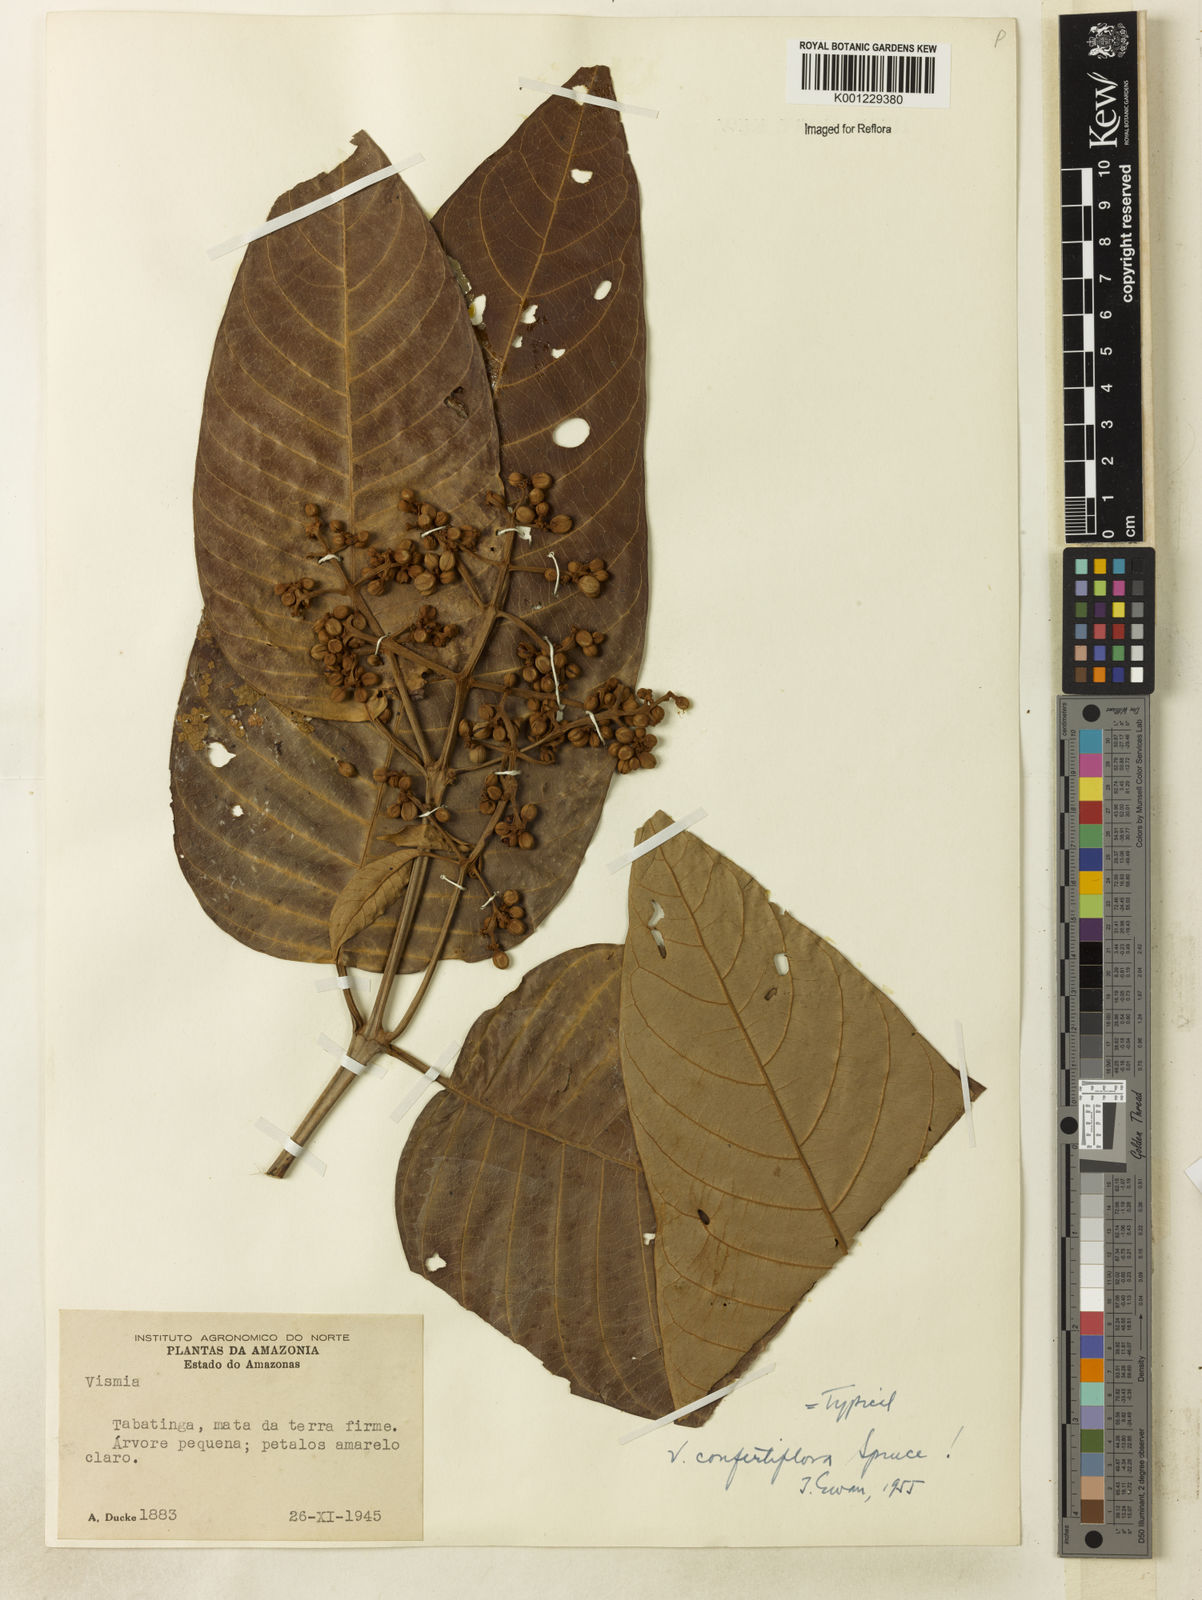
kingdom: Plantae
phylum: Tracheophyta
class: Magnoliopsida
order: Malpighiales
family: Hypericaceae
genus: Vismia
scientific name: Vismia baccifera
